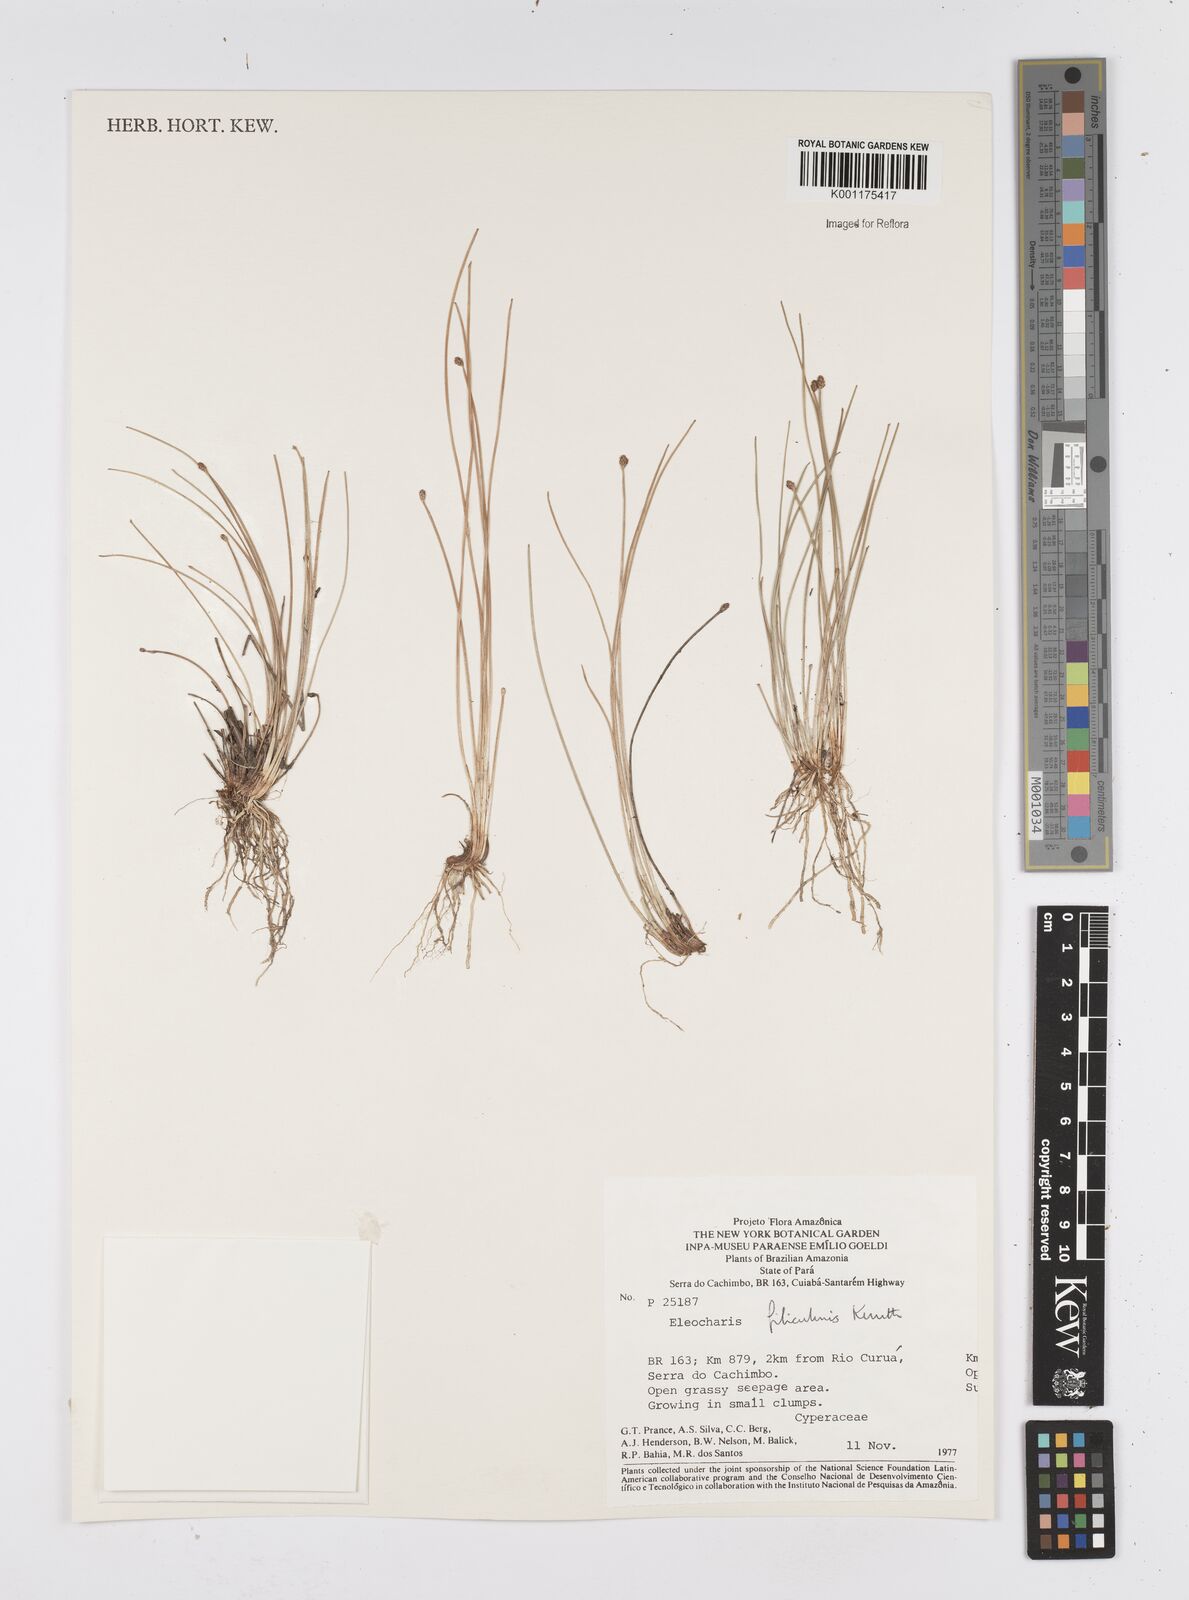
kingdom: Plantae
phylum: Tracheophyta
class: Liliopsida
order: Poales
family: Cyperaceae
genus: Eleocharis
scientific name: Eleocharis filiculmis
